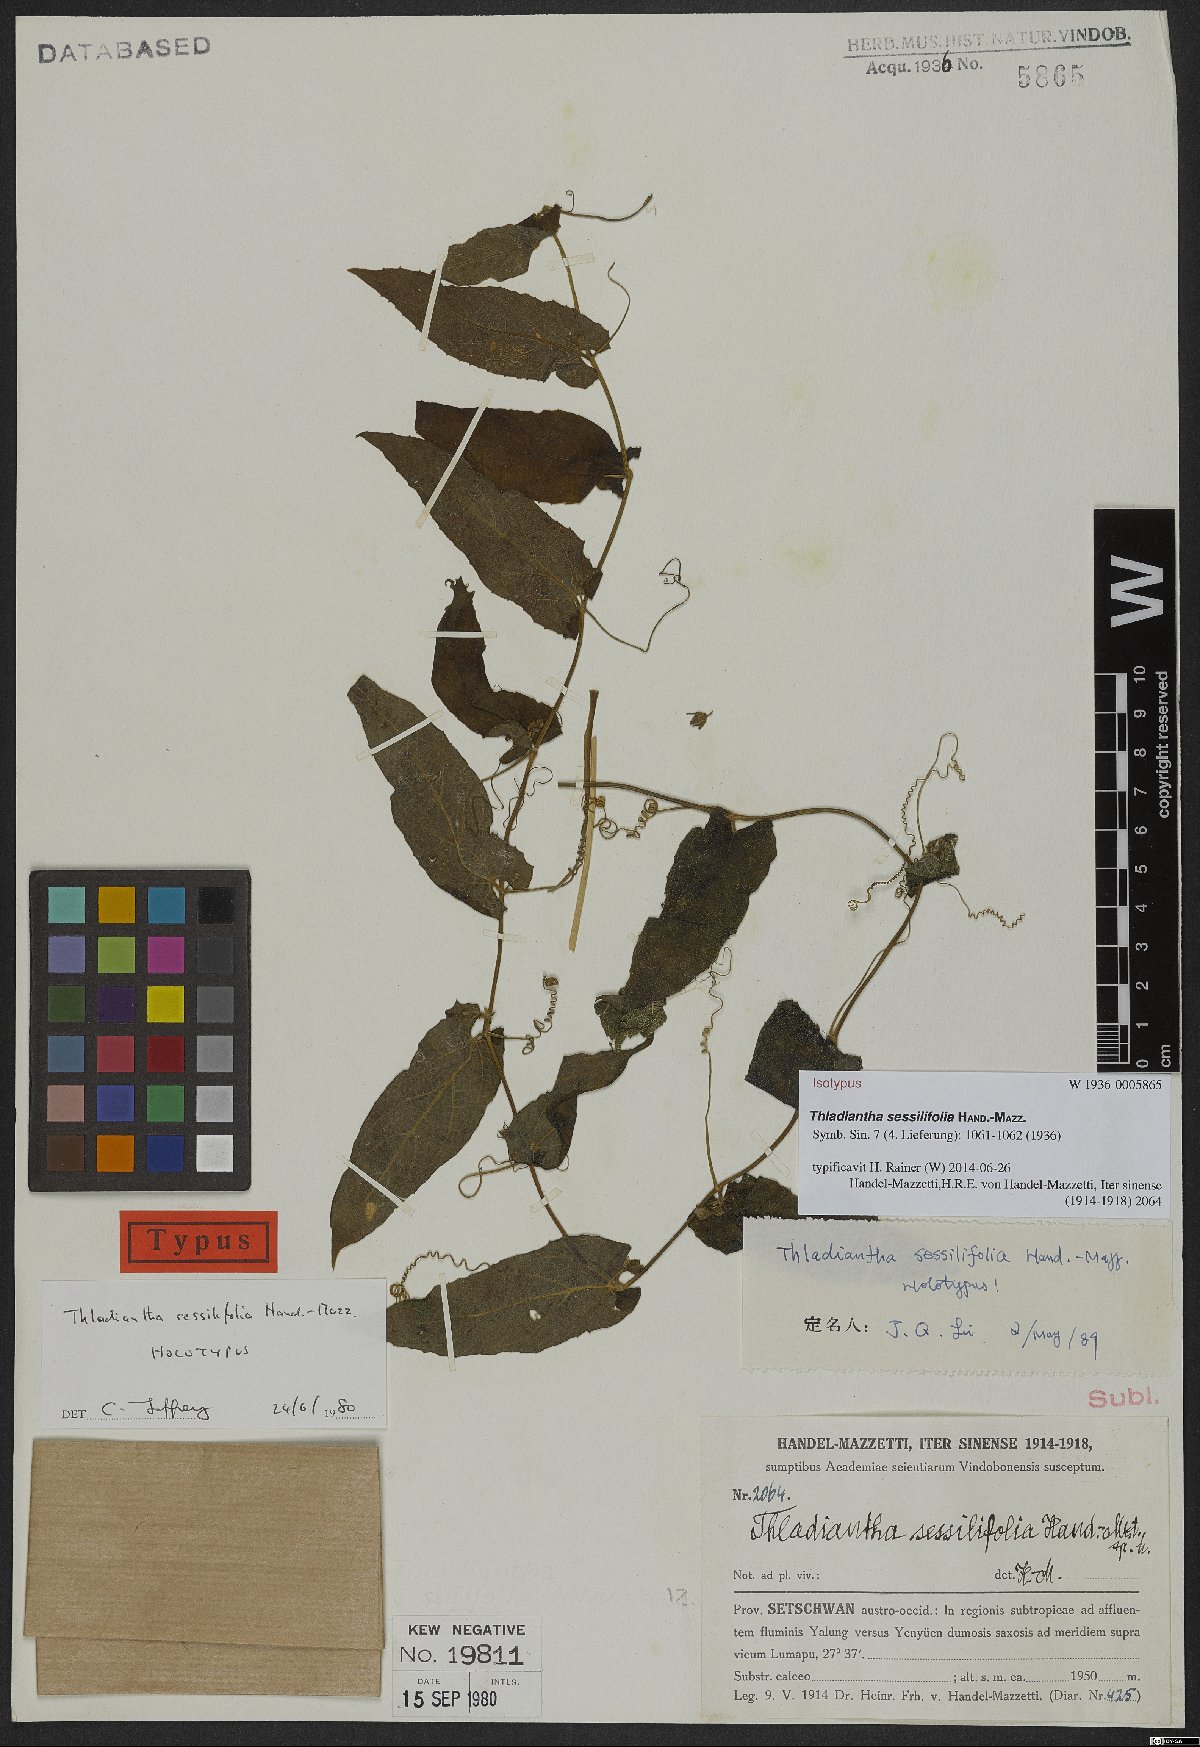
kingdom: Plantae
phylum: Tracheophyta
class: Magnoliopsida
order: Cucurbitales
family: Cucurbitaceae
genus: Thladiantha
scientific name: Thladiantha sessilifolia
